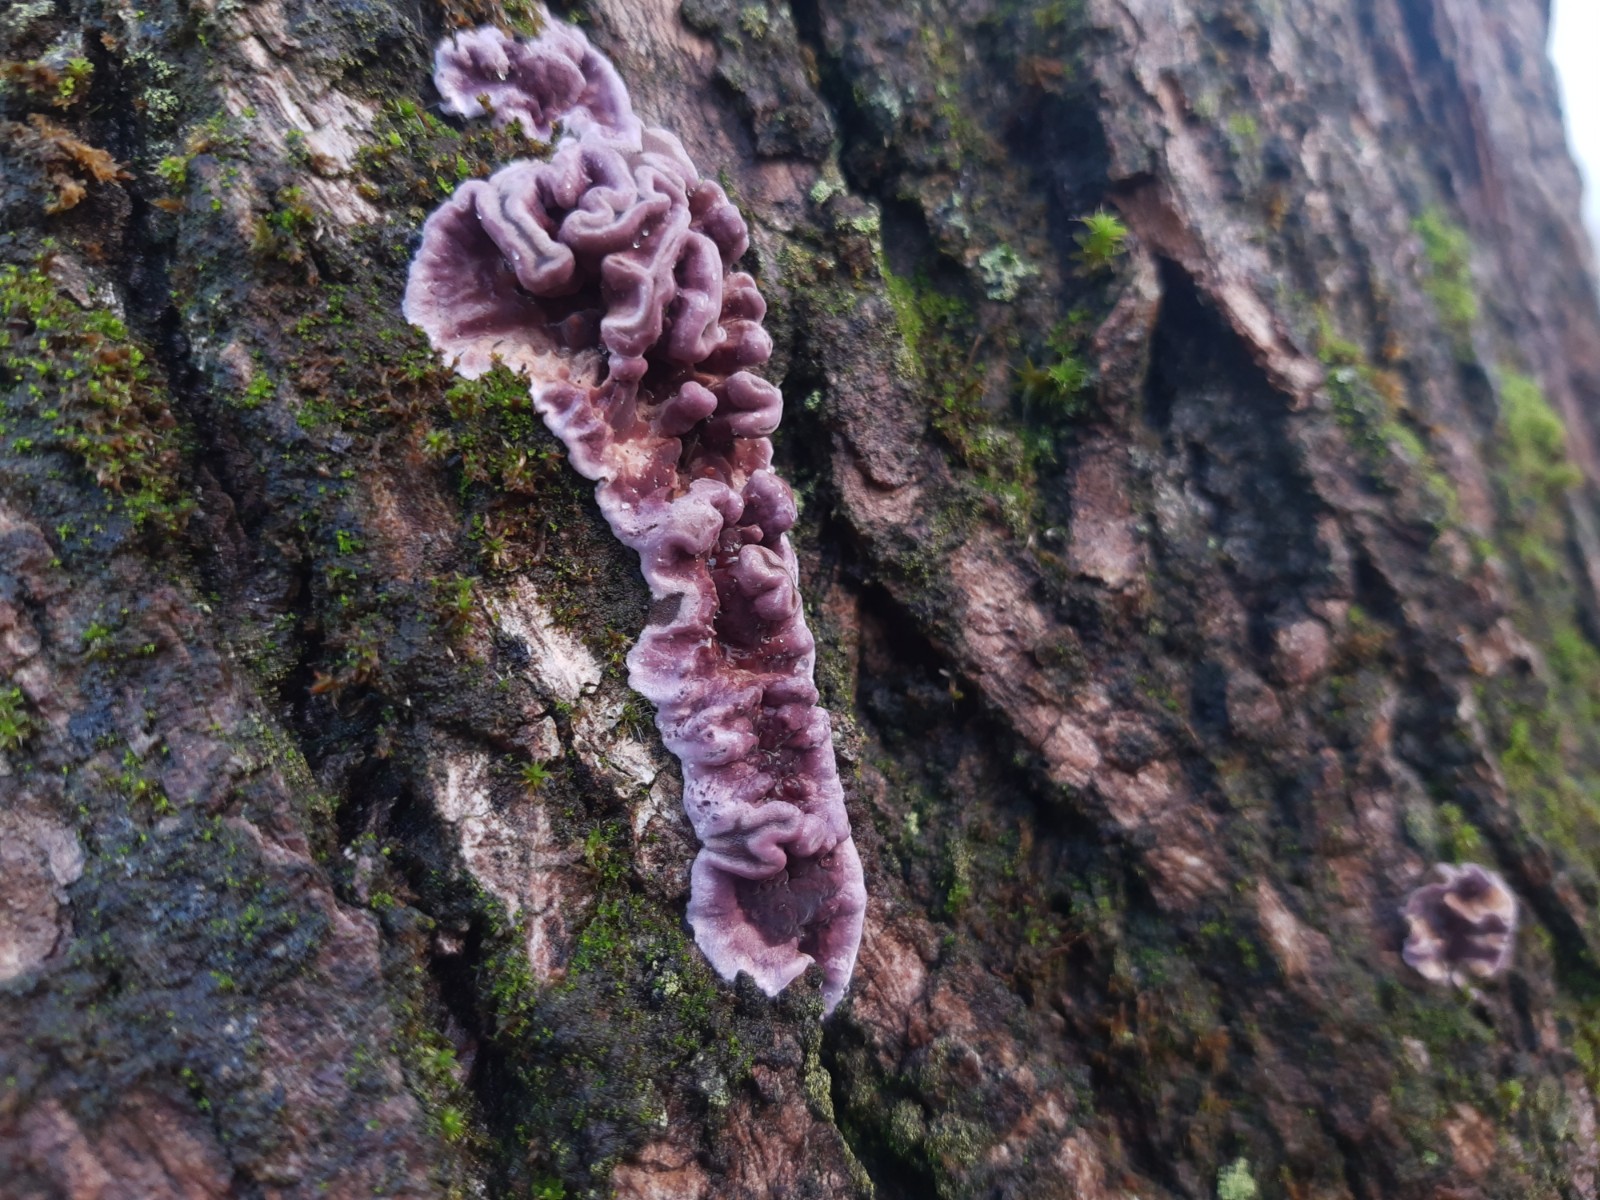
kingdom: Fungi
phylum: Basidiomycota
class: Agaricomycetes
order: Agaricales
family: Cyphellaceae
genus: Chondrostereum
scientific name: Chondrostereum purpureum
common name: purpurlædersvamp
